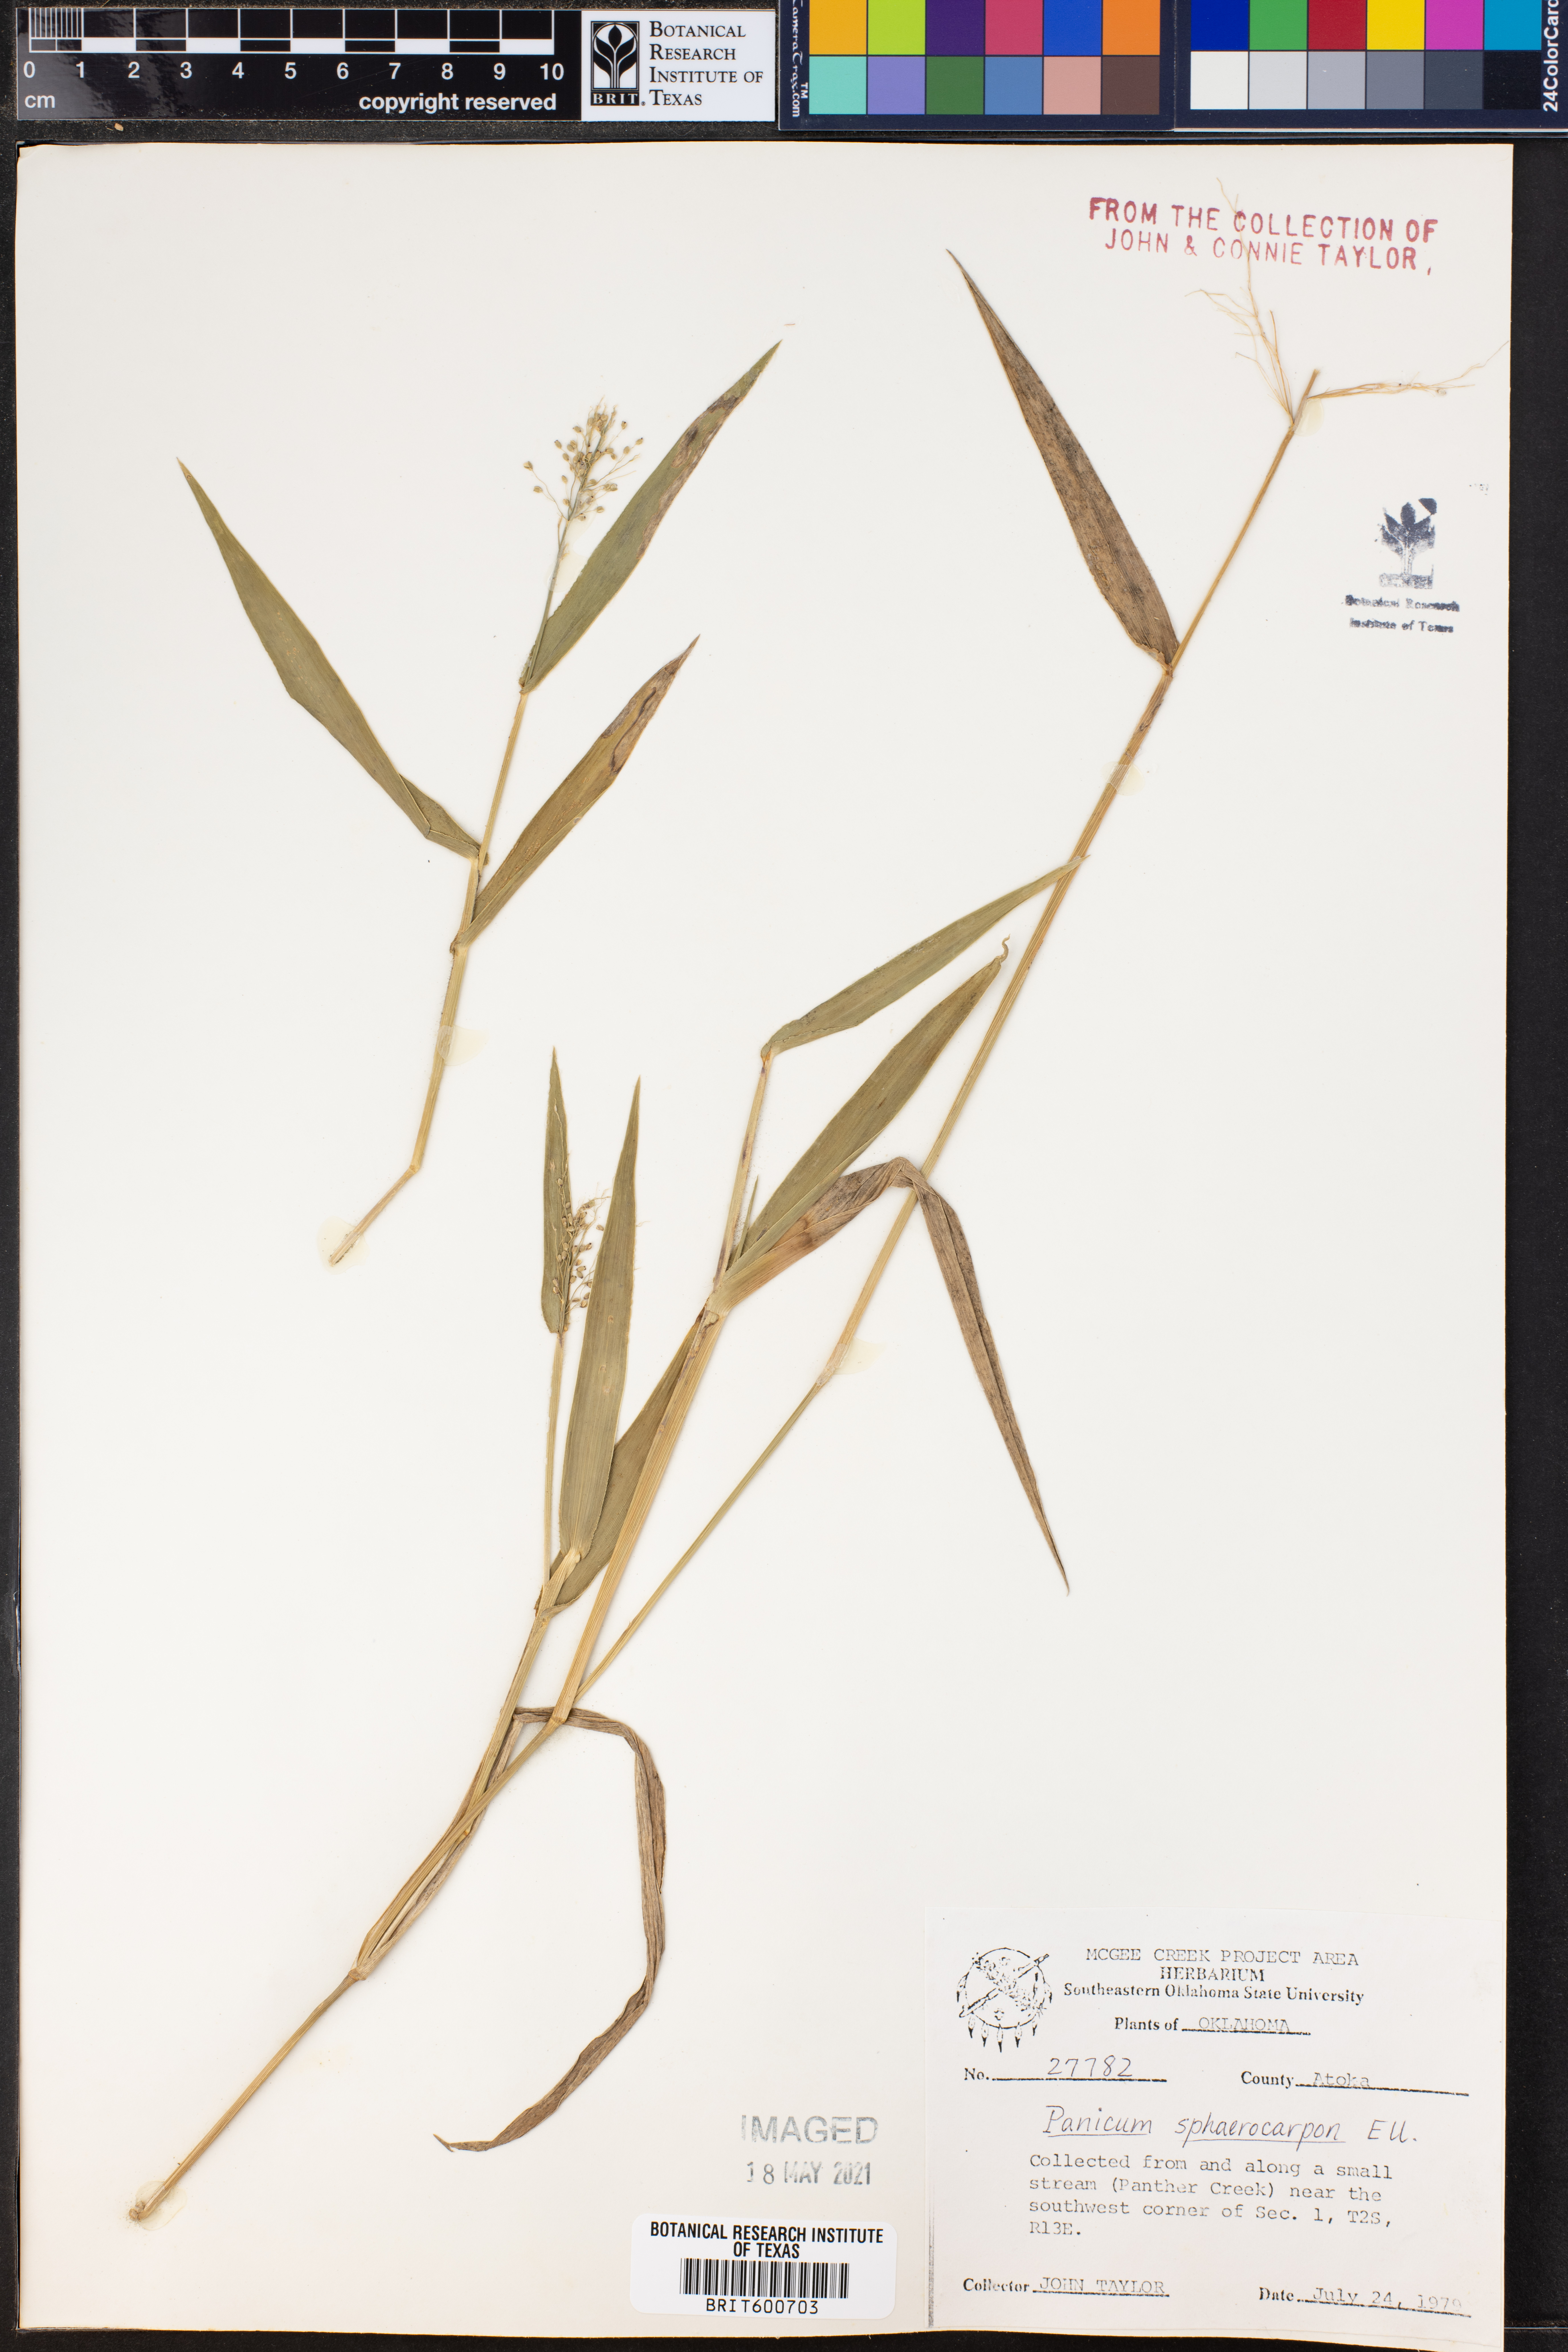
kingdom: Plantae
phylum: Tracheophyta
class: Liliopsida
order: Poales
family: Poaceae
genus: Dichanthelium
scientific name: Dichanthelium sphaerocarpon
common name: Round-fruited panicgrass
